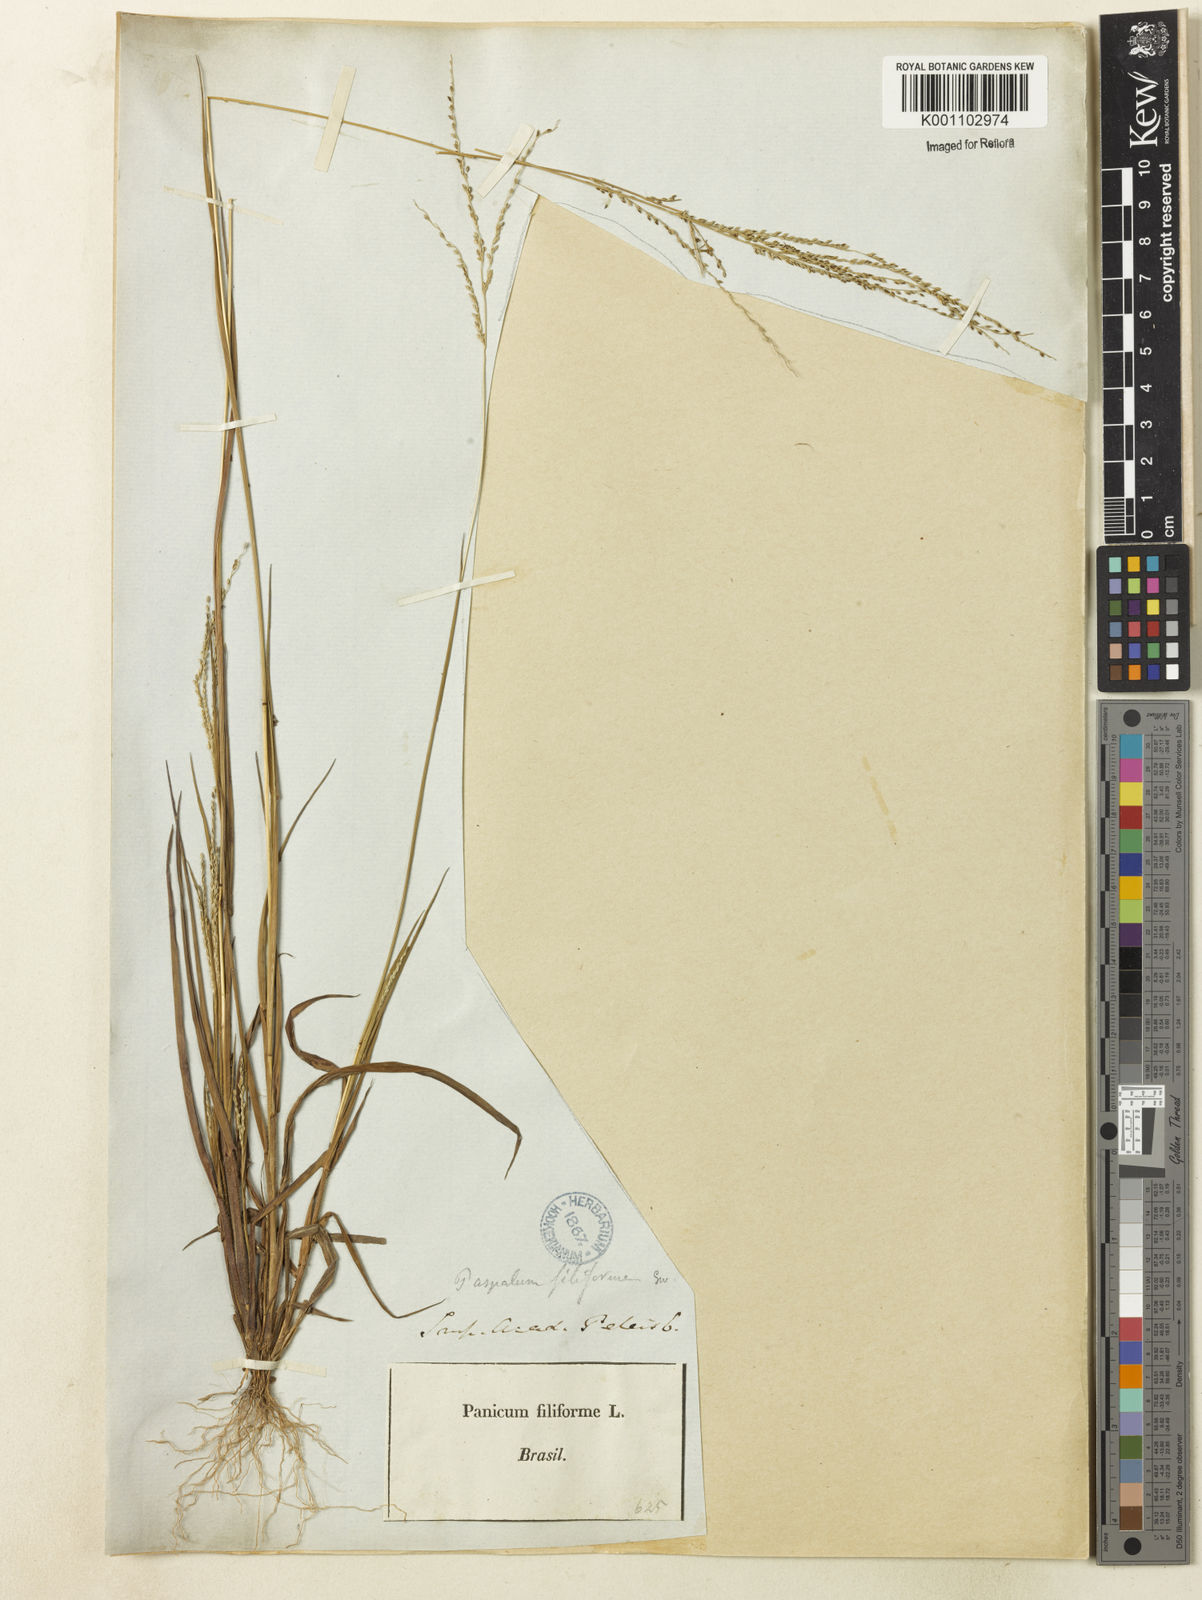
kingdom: Plantae
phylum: Tracheophyta
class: Liliopsida
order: Poales
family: Poaceae
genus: Digitaria
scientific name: Digitaria filiformis
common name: Slender crabgrass
